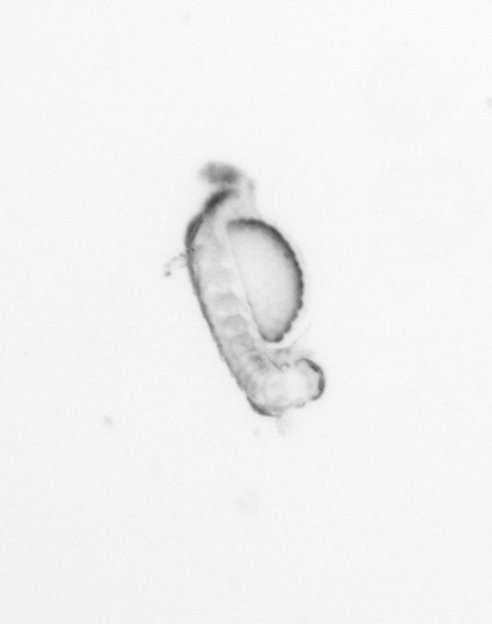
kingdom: Animalia
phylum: Annelida
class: Polychaeta
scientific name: Polychaeta
